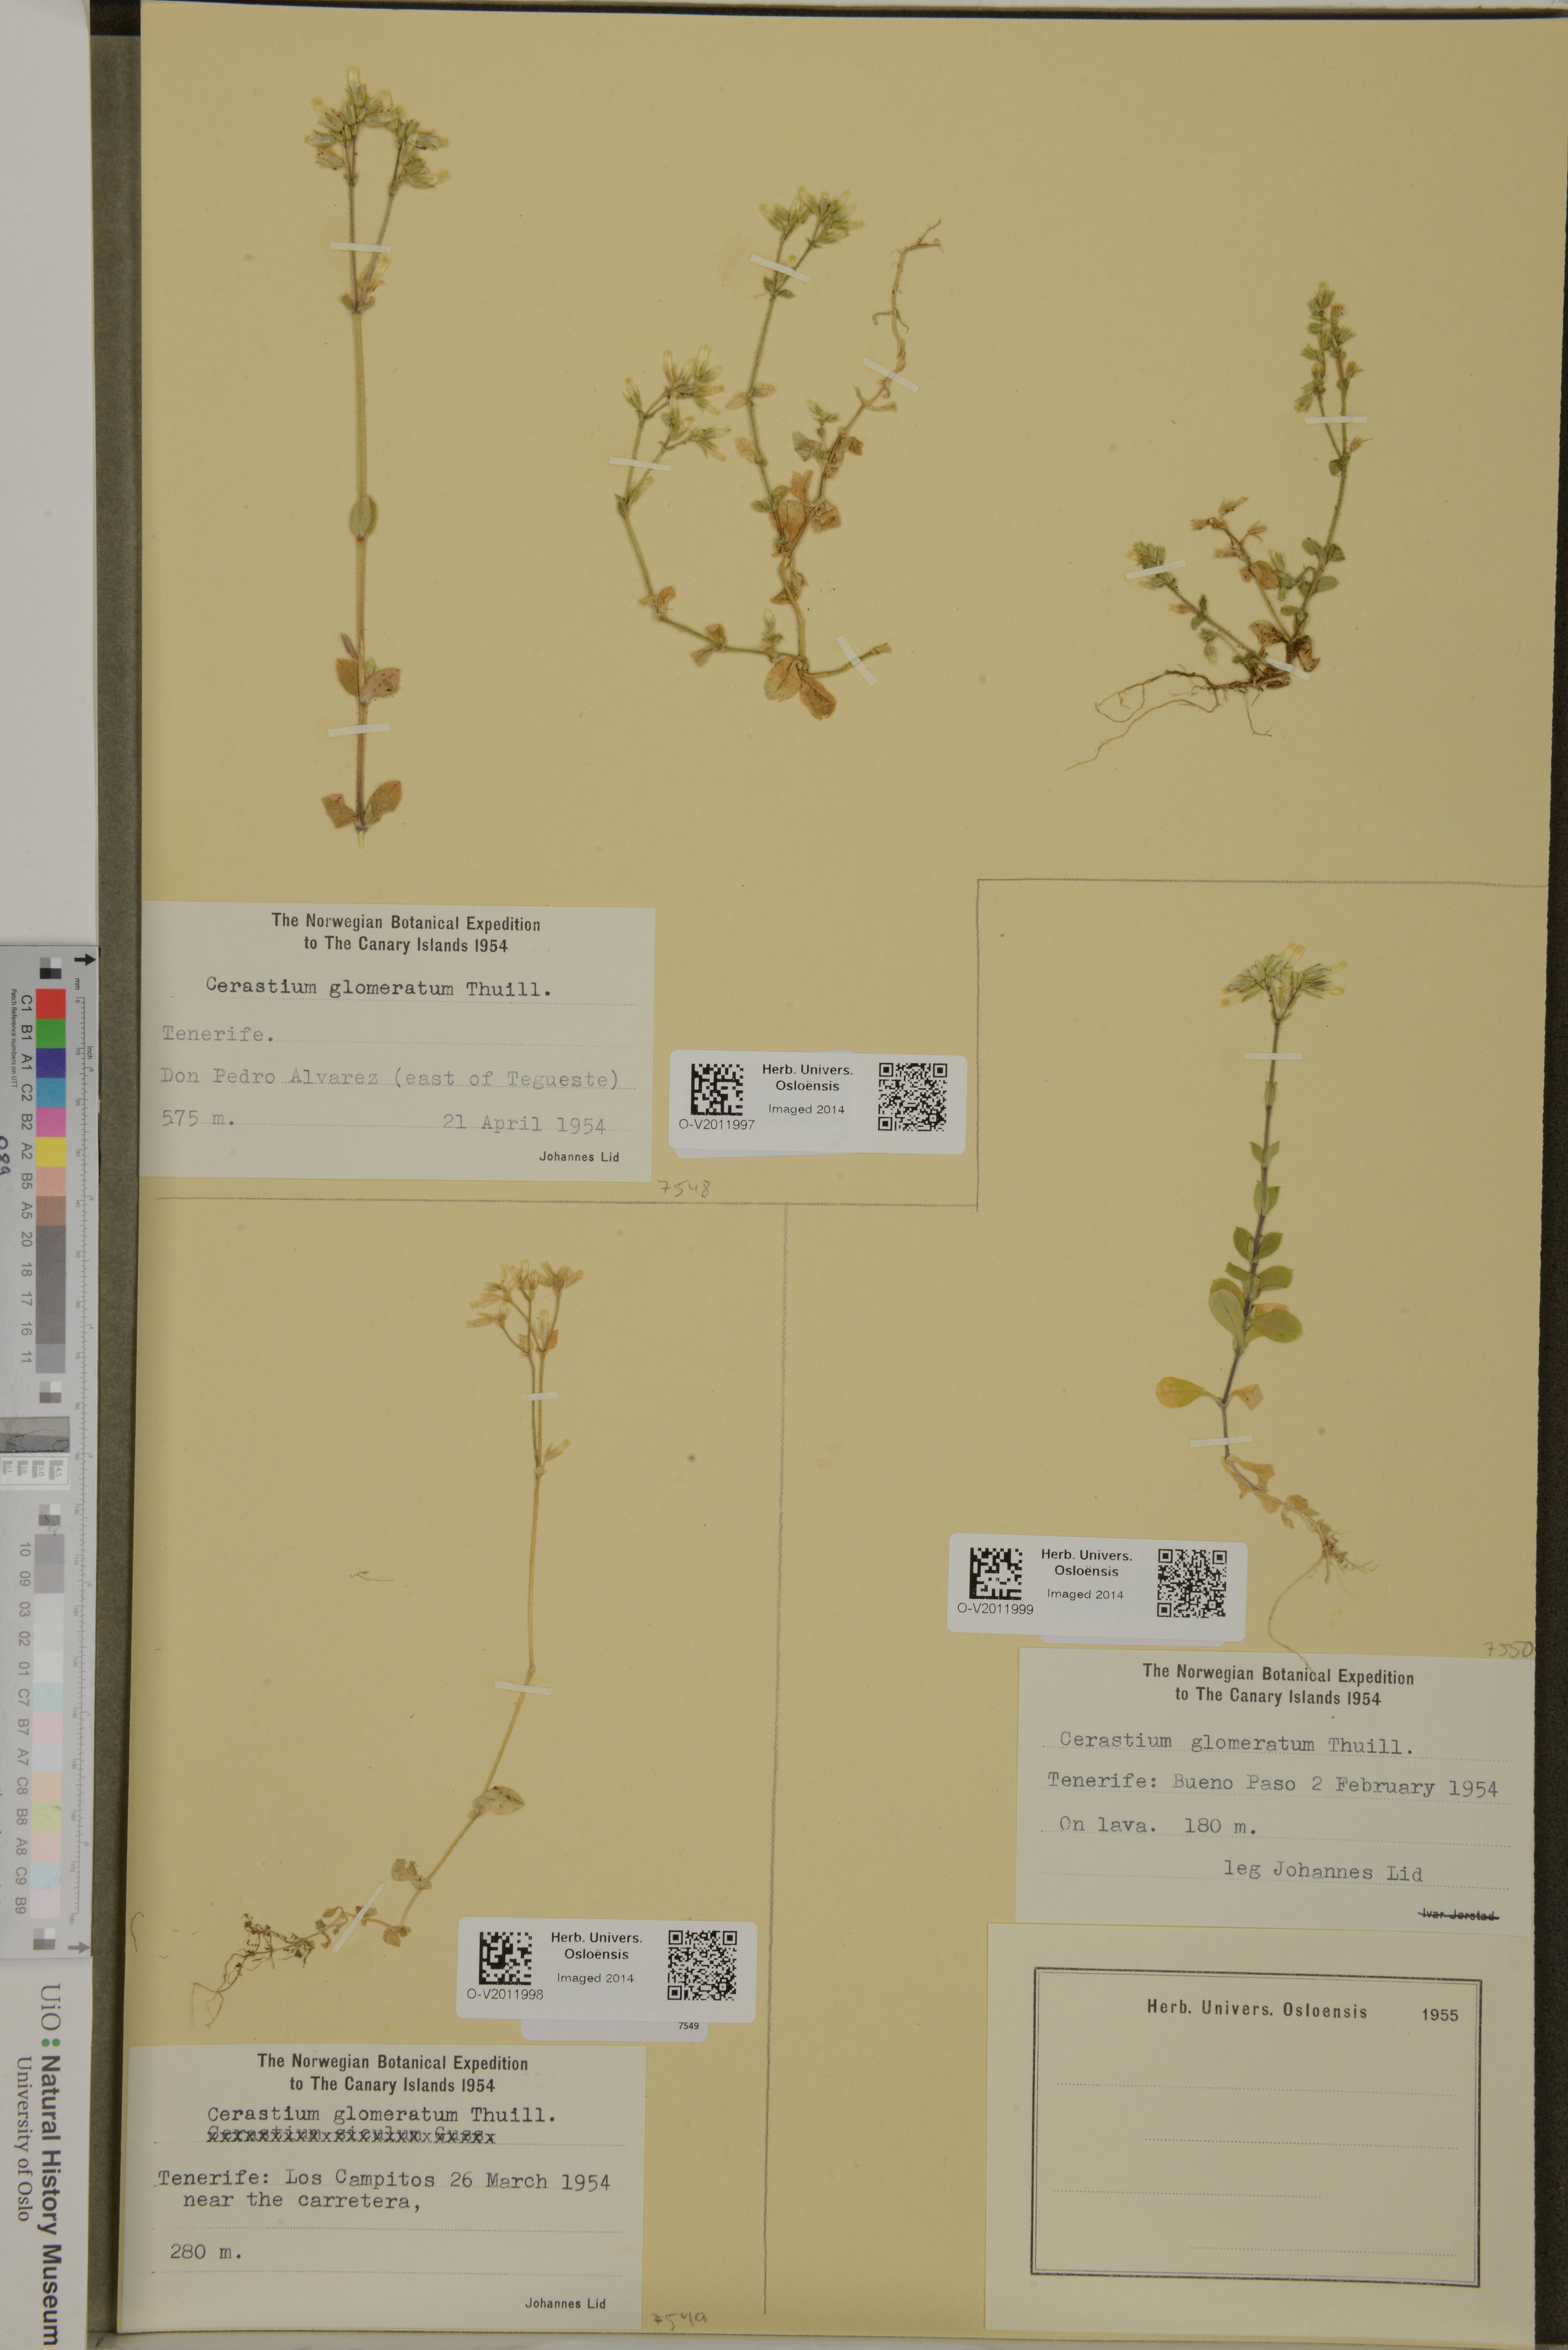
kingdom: Plantae
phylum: Tracheophyta
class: Magnoliopsida
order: Caryophyllales
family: Caryophyllaceae
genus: Cerastium
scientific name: Cerastium glomeratum
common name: Sticky chickweed
